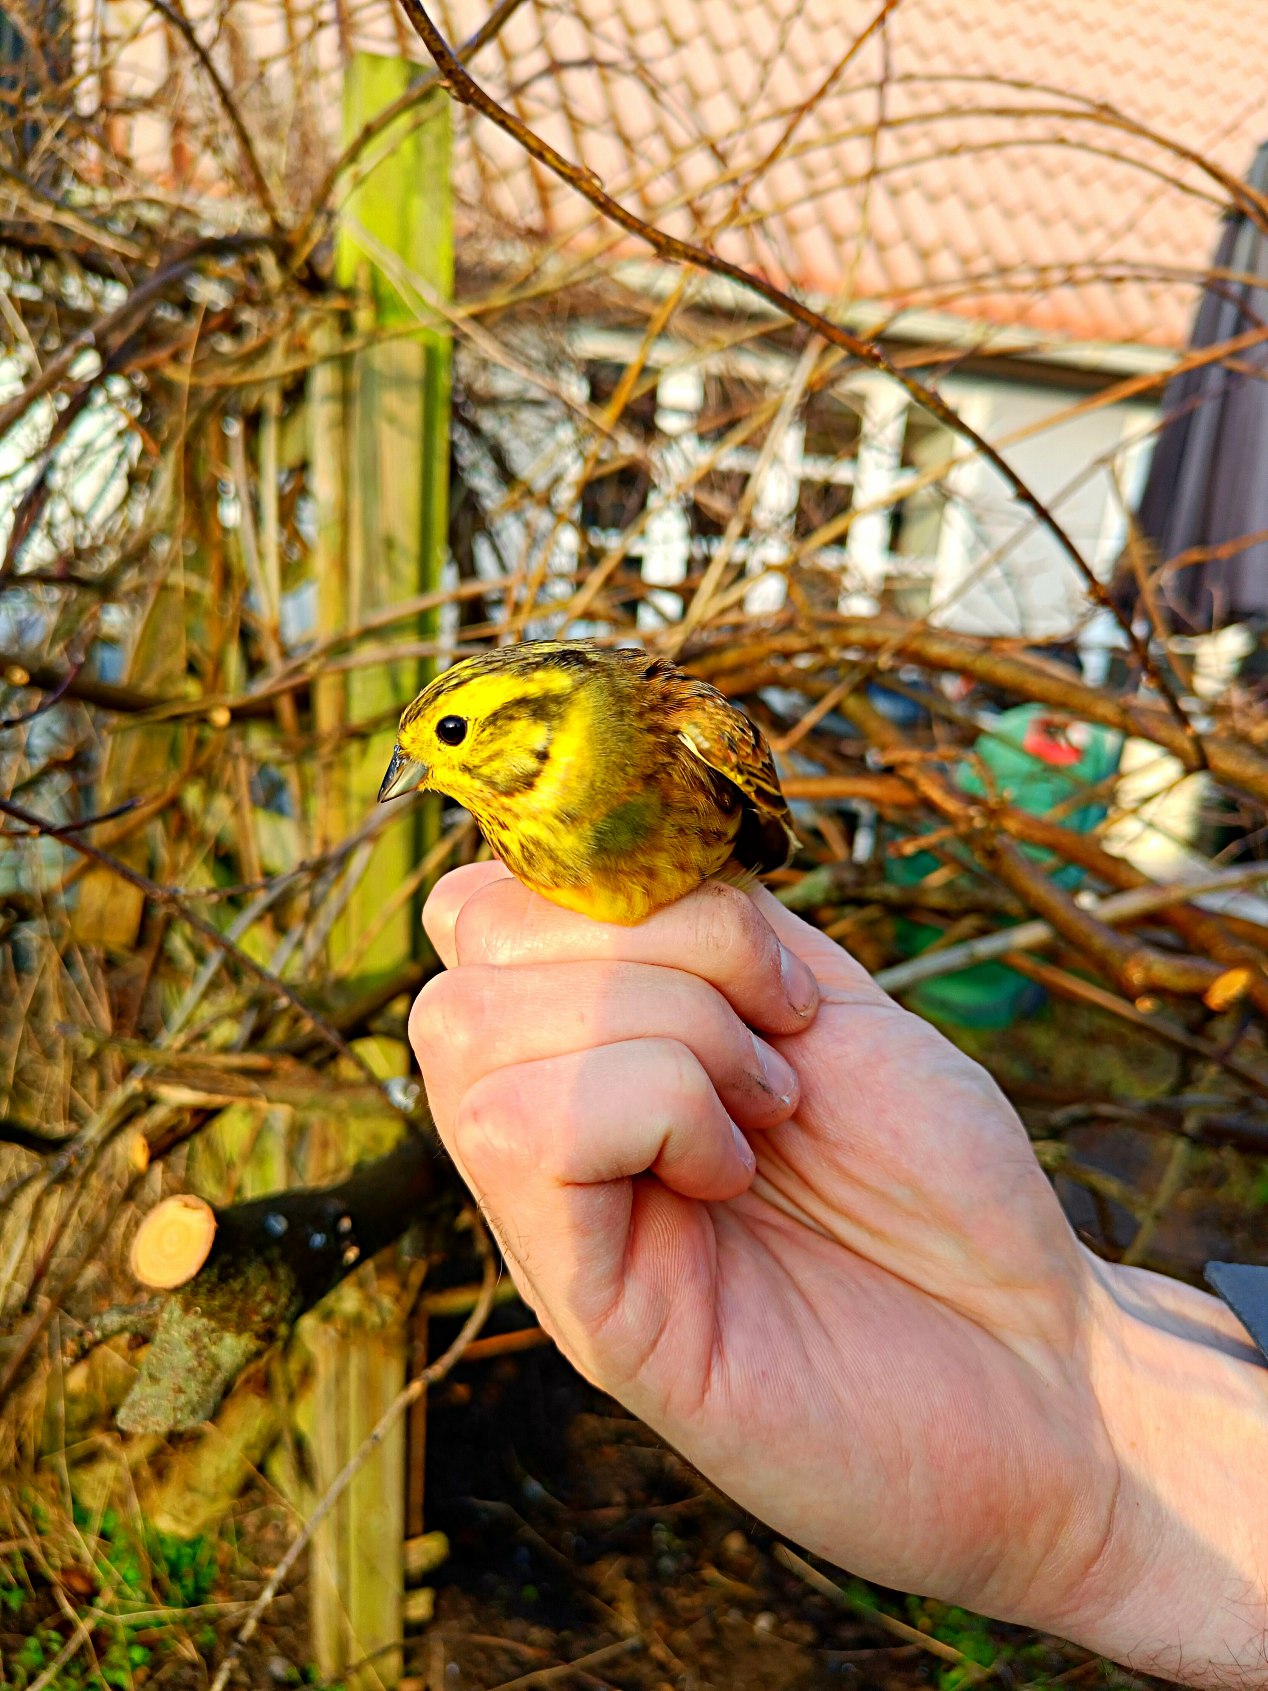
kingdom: Animalia
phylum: Chordata
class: Aves
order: Passeriformes
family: Emberizidae
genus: Emberiza
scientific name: Emberiza citrinella
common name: Gulspurv
